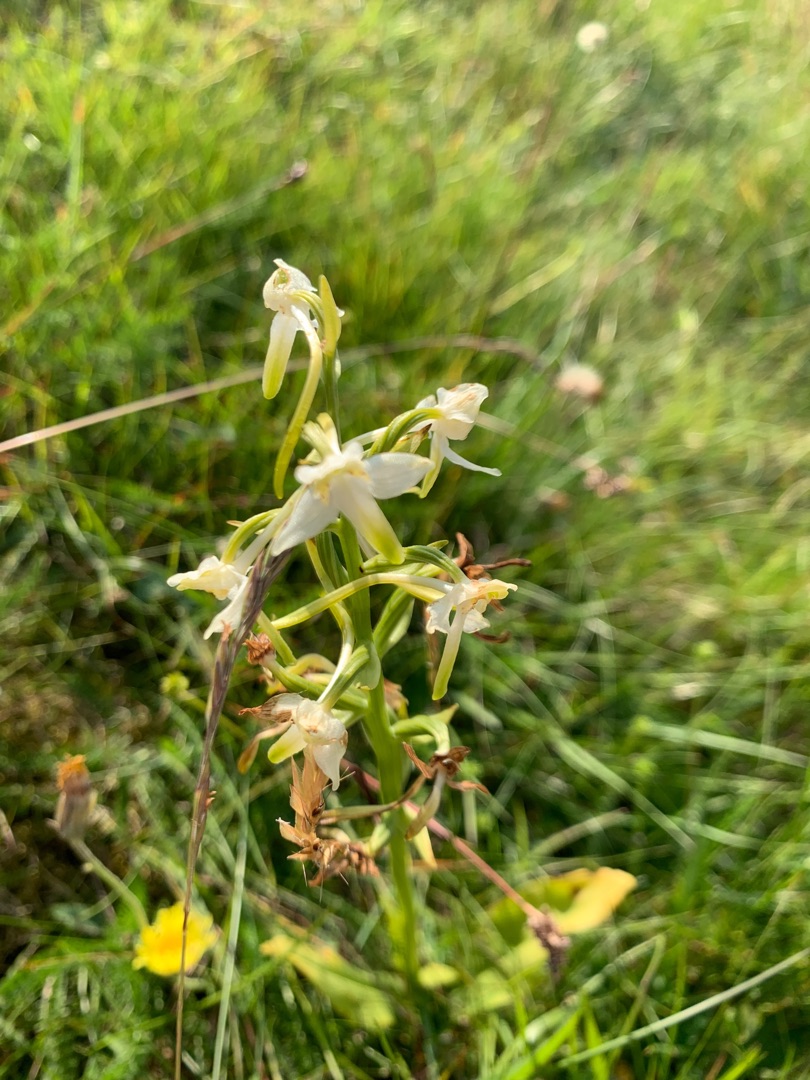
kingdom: Plantae
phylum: Tracheophyta
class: Liliopsida
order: Asparagales
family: Orchidaceae
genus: Platanthera
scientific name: Platanthera chlorantha
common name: Skov-gøgelilje
